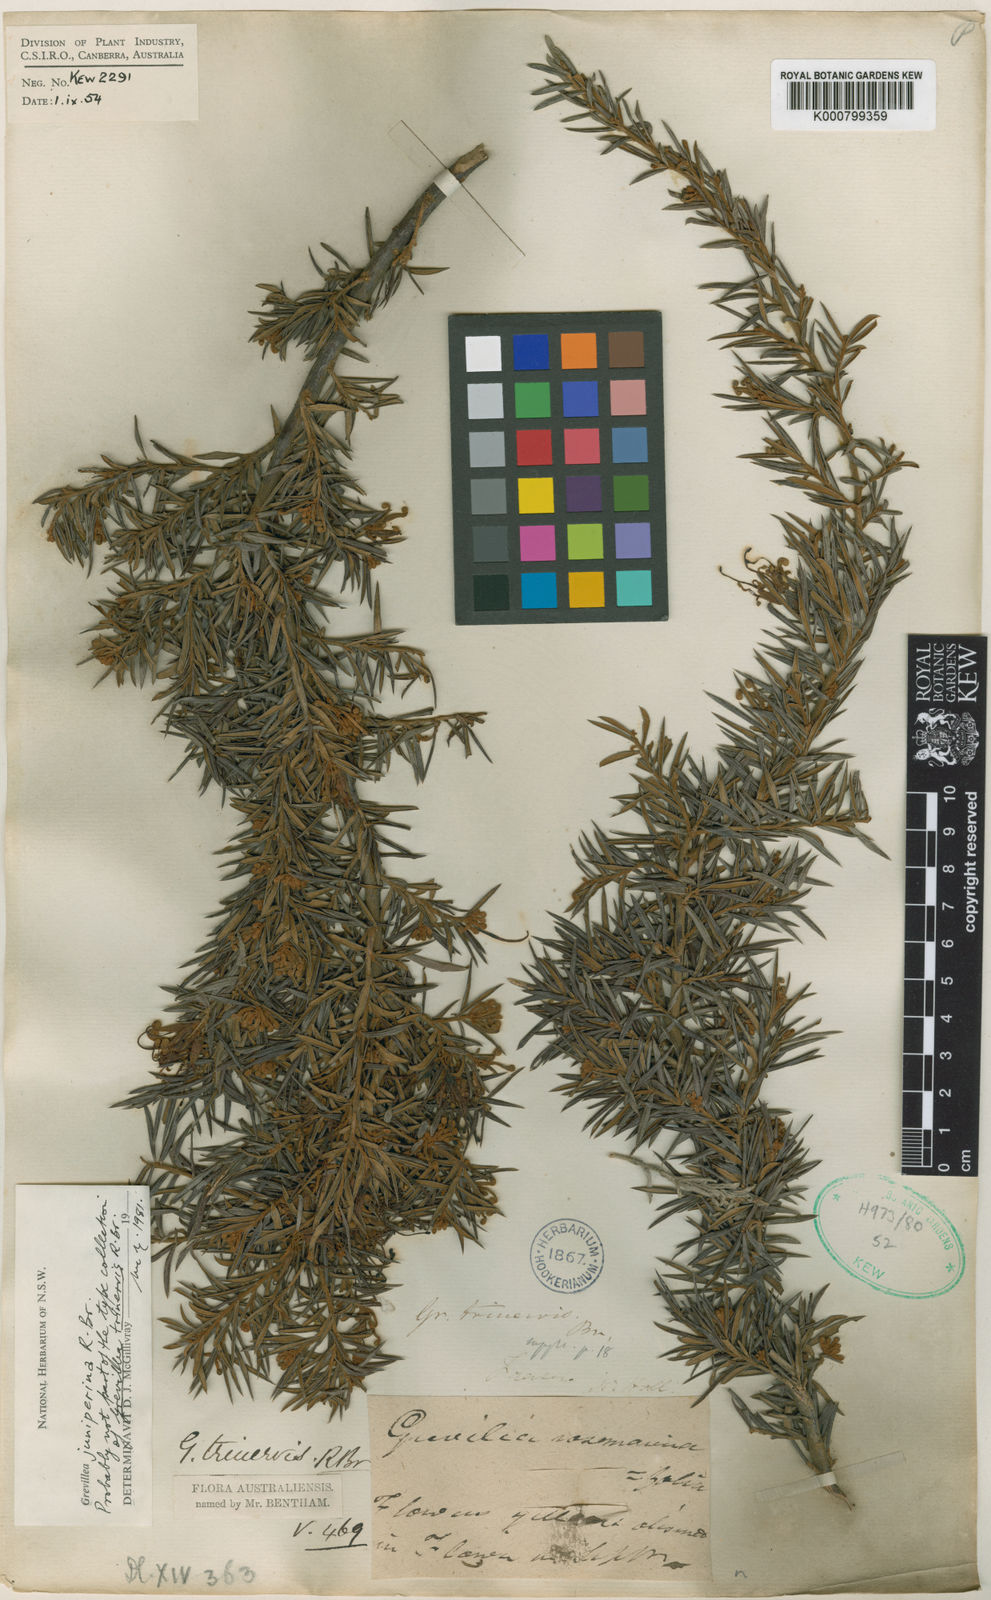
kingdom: Plantae
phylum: Tracheophyta
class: Magnoliopsida
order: Proteales
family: Proteaceae
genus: Grevillea
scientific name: Grevillea juniperina
